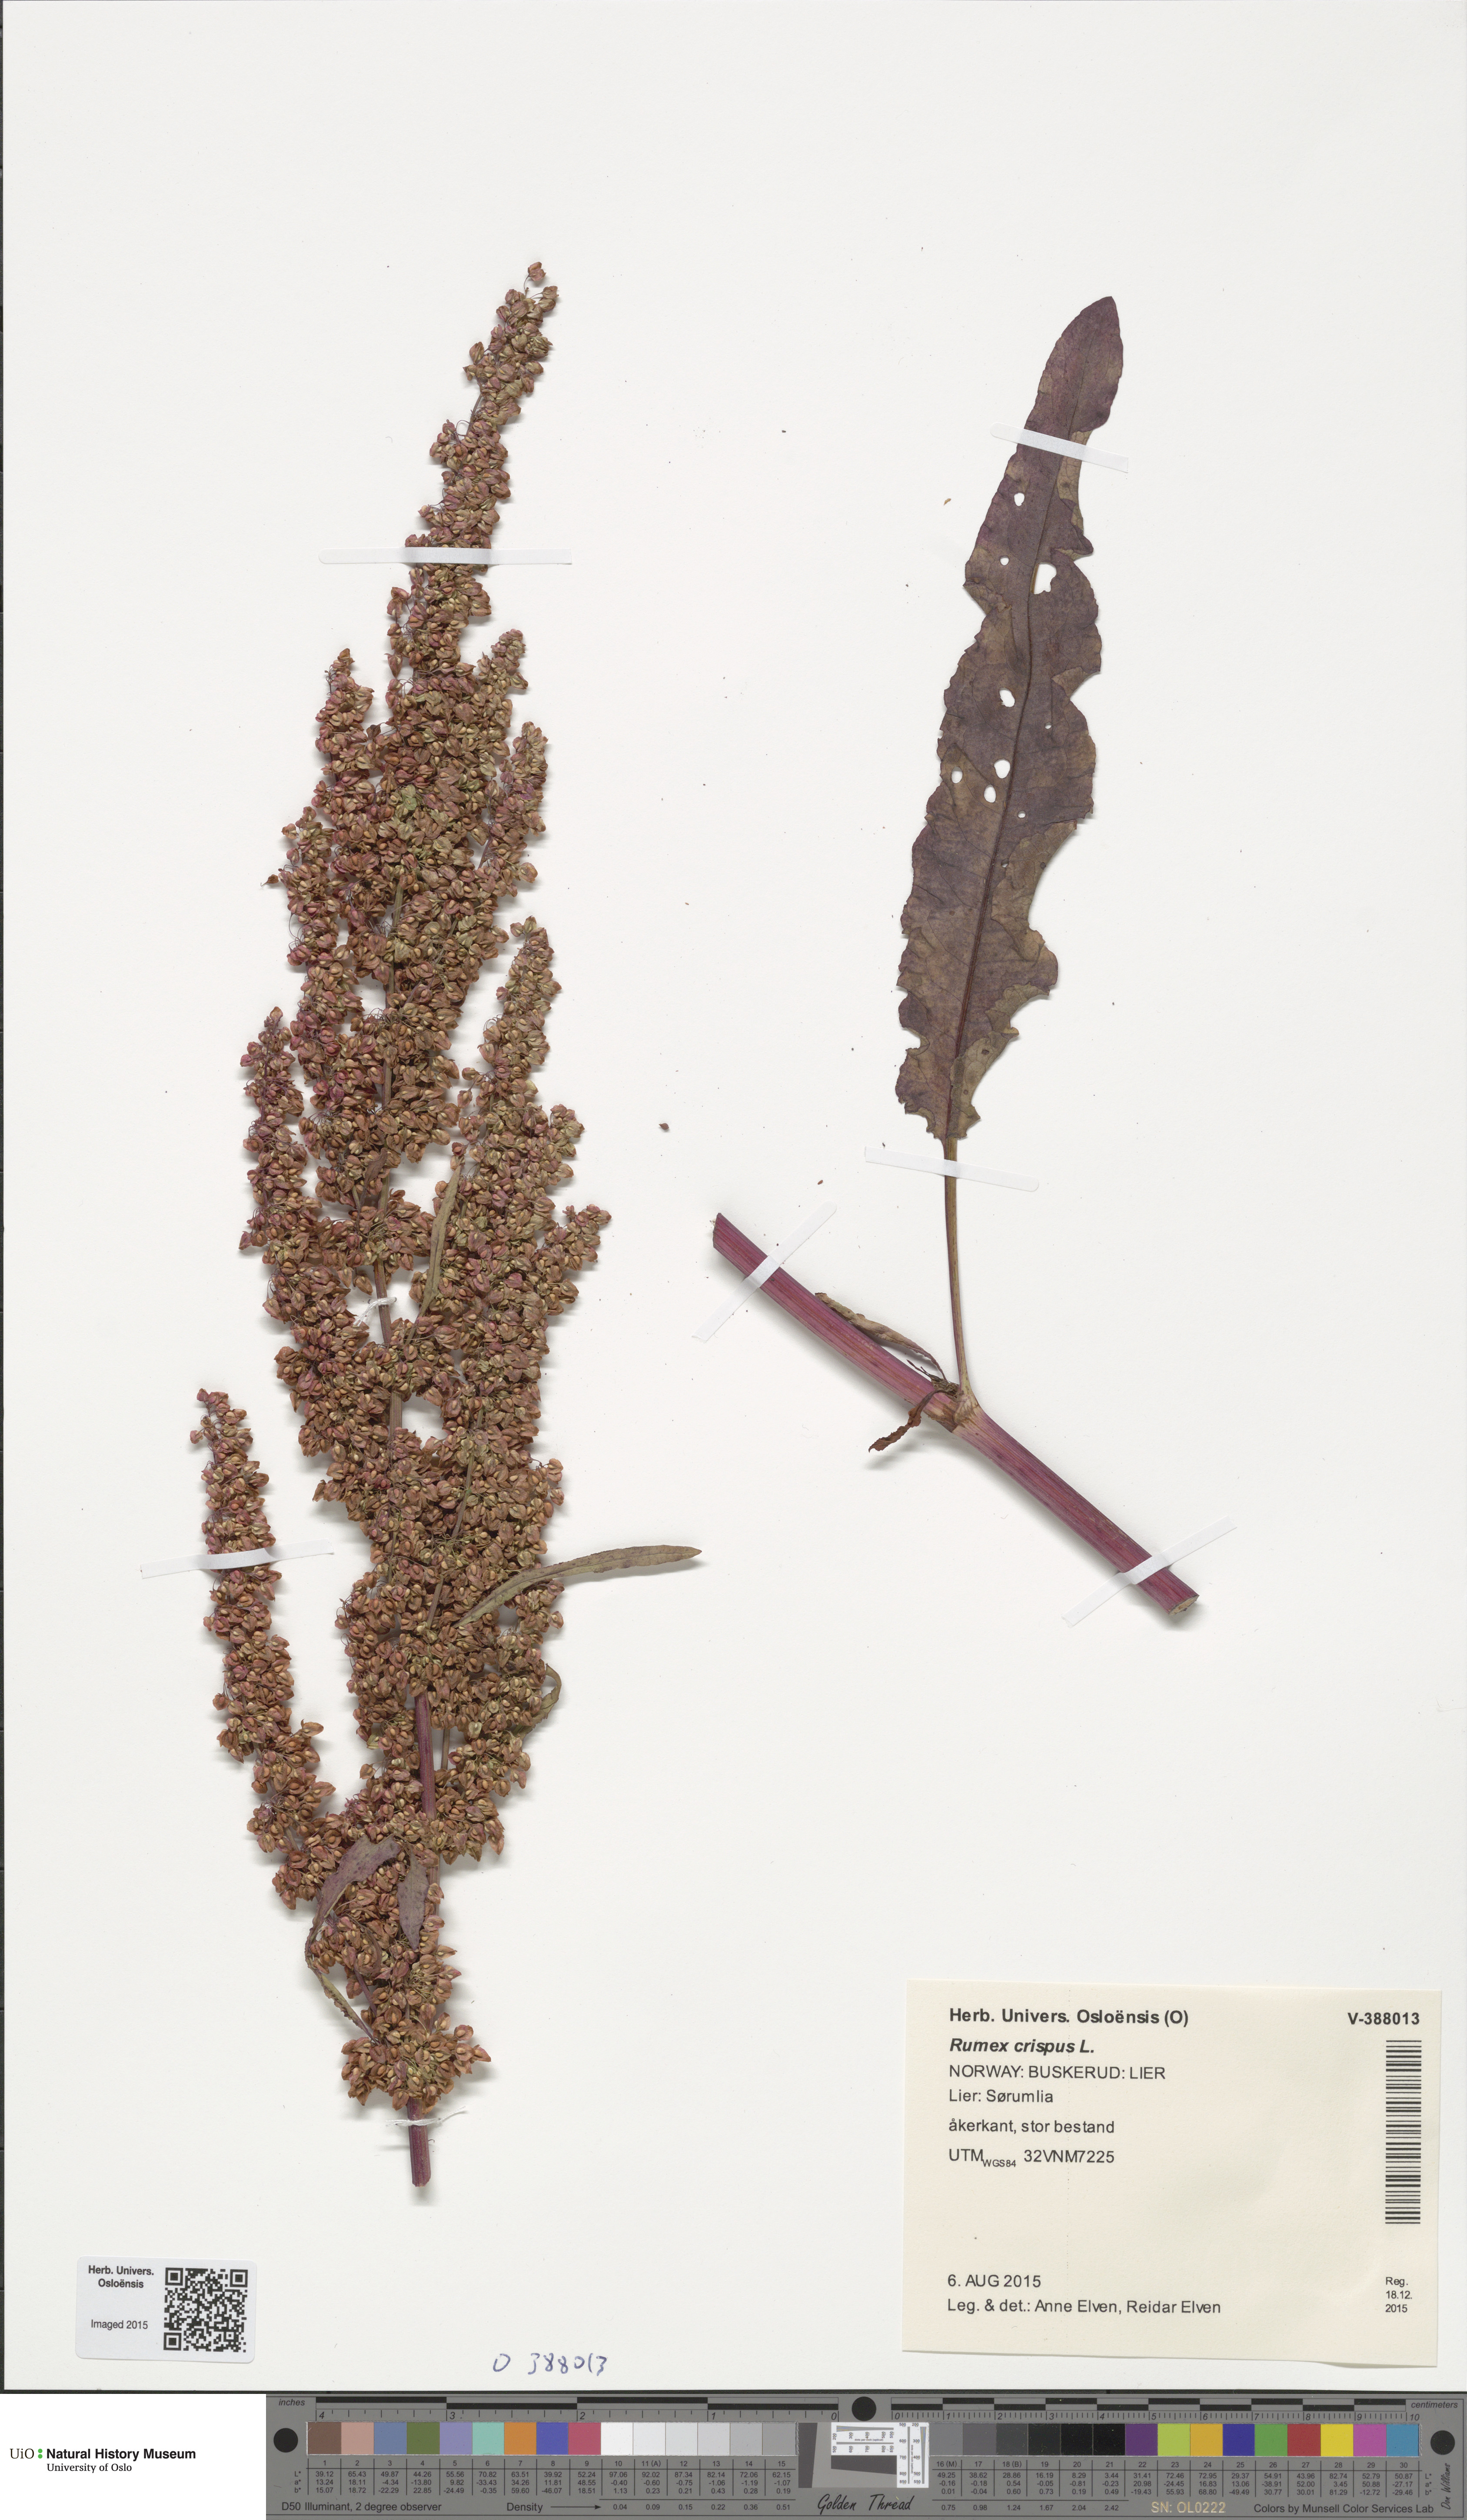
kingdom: Plantae
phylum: Tracheophyta
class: Magnoliopsida
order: Caryophyllales
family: Polygonaceae
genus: Rumex
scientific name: Rumex crispus
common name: Curled dock
